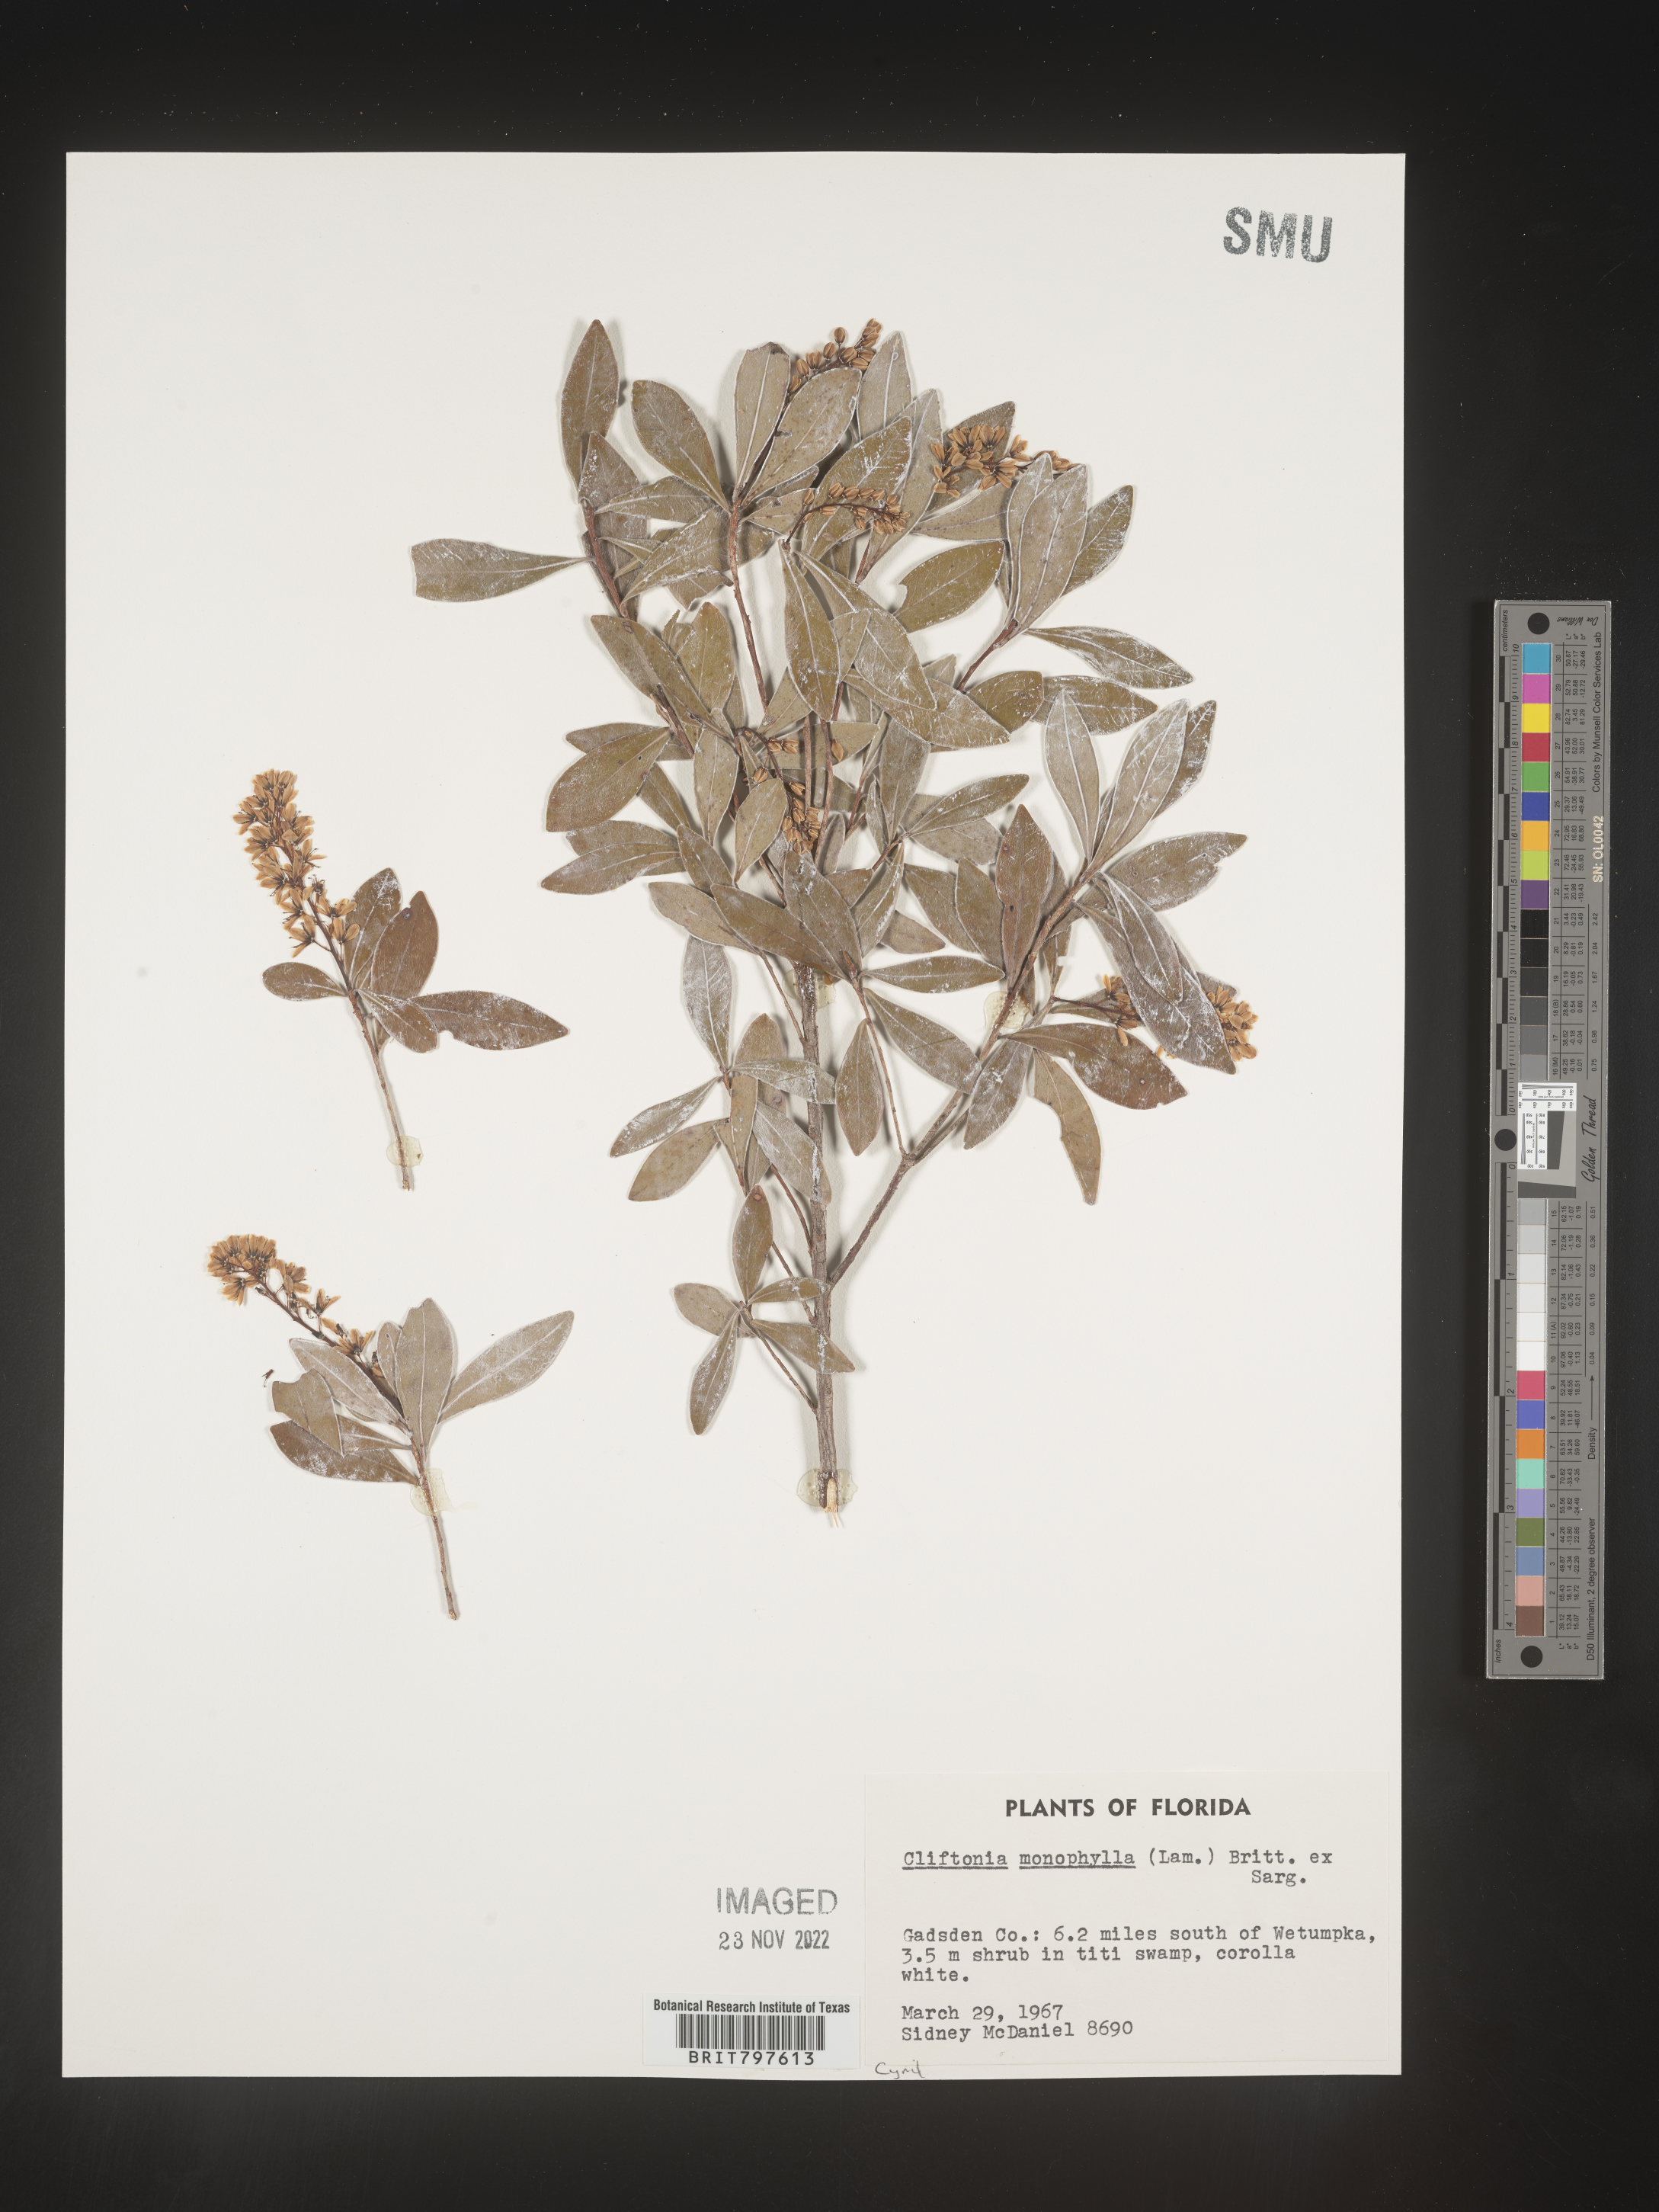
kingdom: Plantae
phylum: Tracheophyta
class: Magnoliopsida
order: Ericales
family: Cyrillaceae
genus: Cliftonia
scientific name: Cliftonia monophylla
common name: Titi
